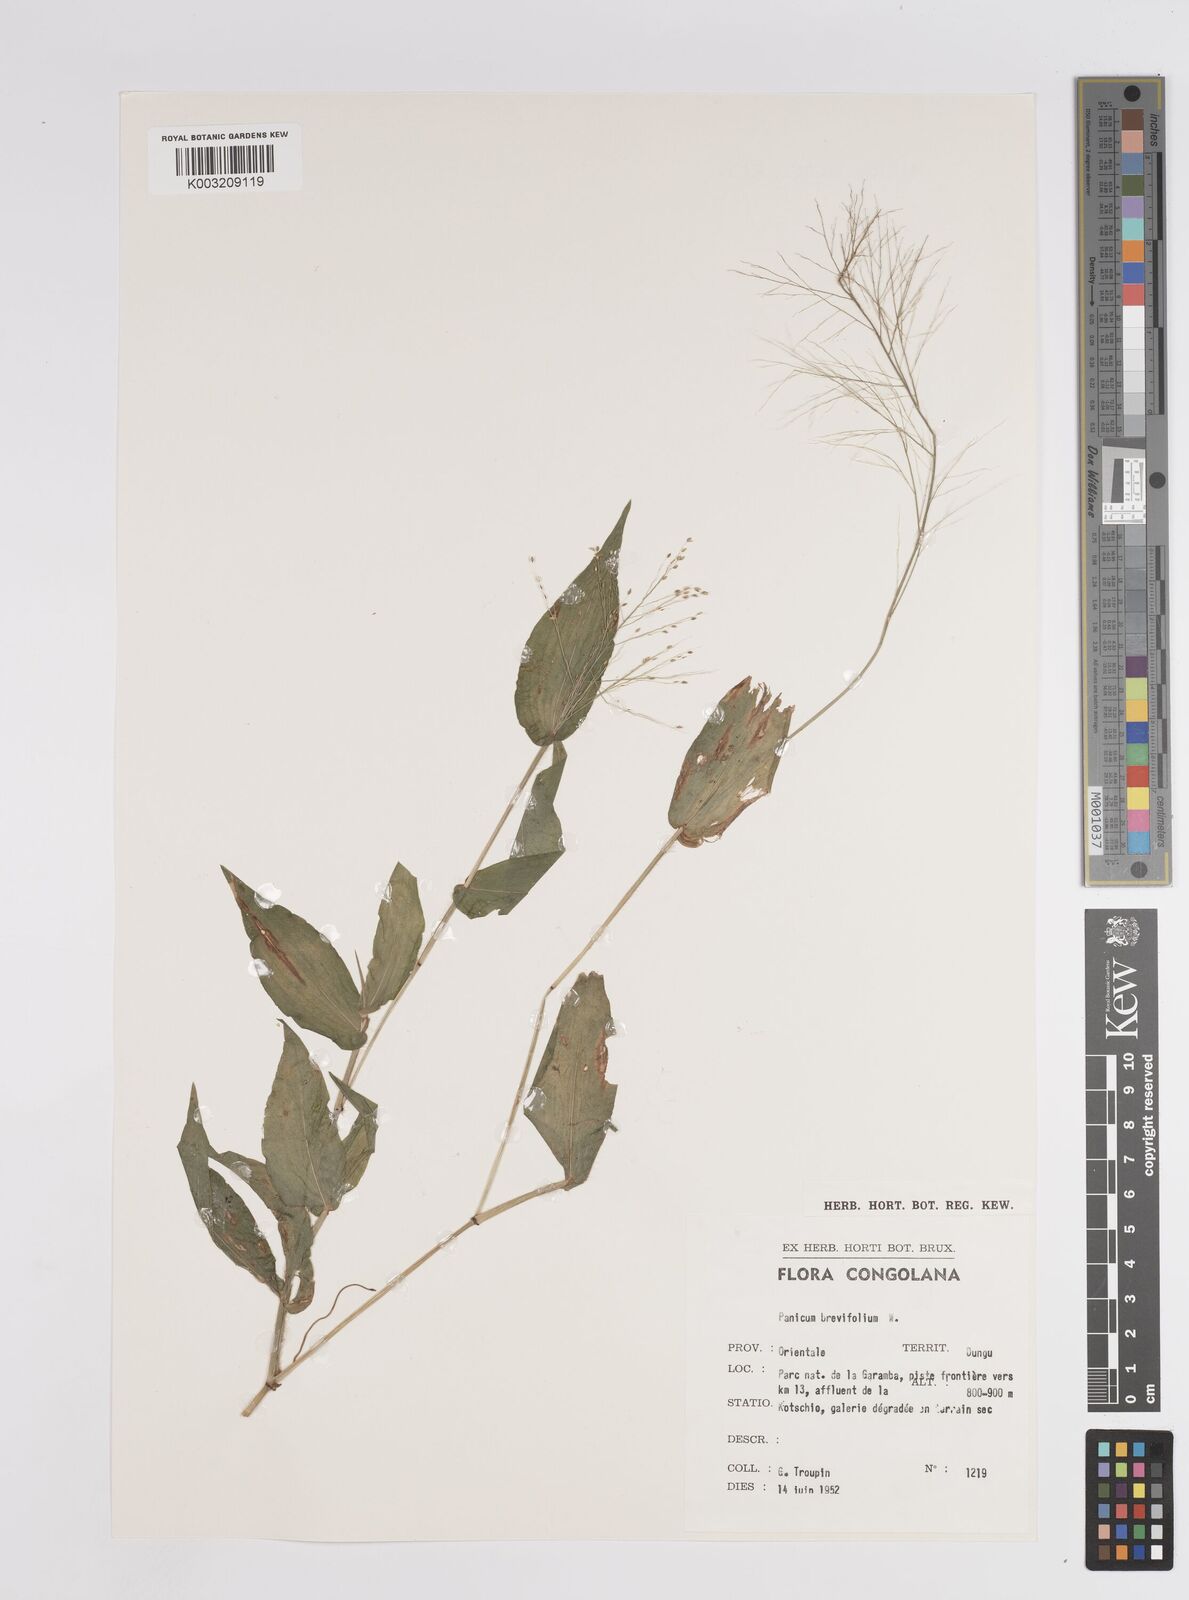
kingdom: Plantae
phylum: Tracheophyta
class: Liliopsida
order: Poales
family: Poaceae
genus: Panicum
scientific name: Panicum brevifolium
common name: Shortleaf panic grass
